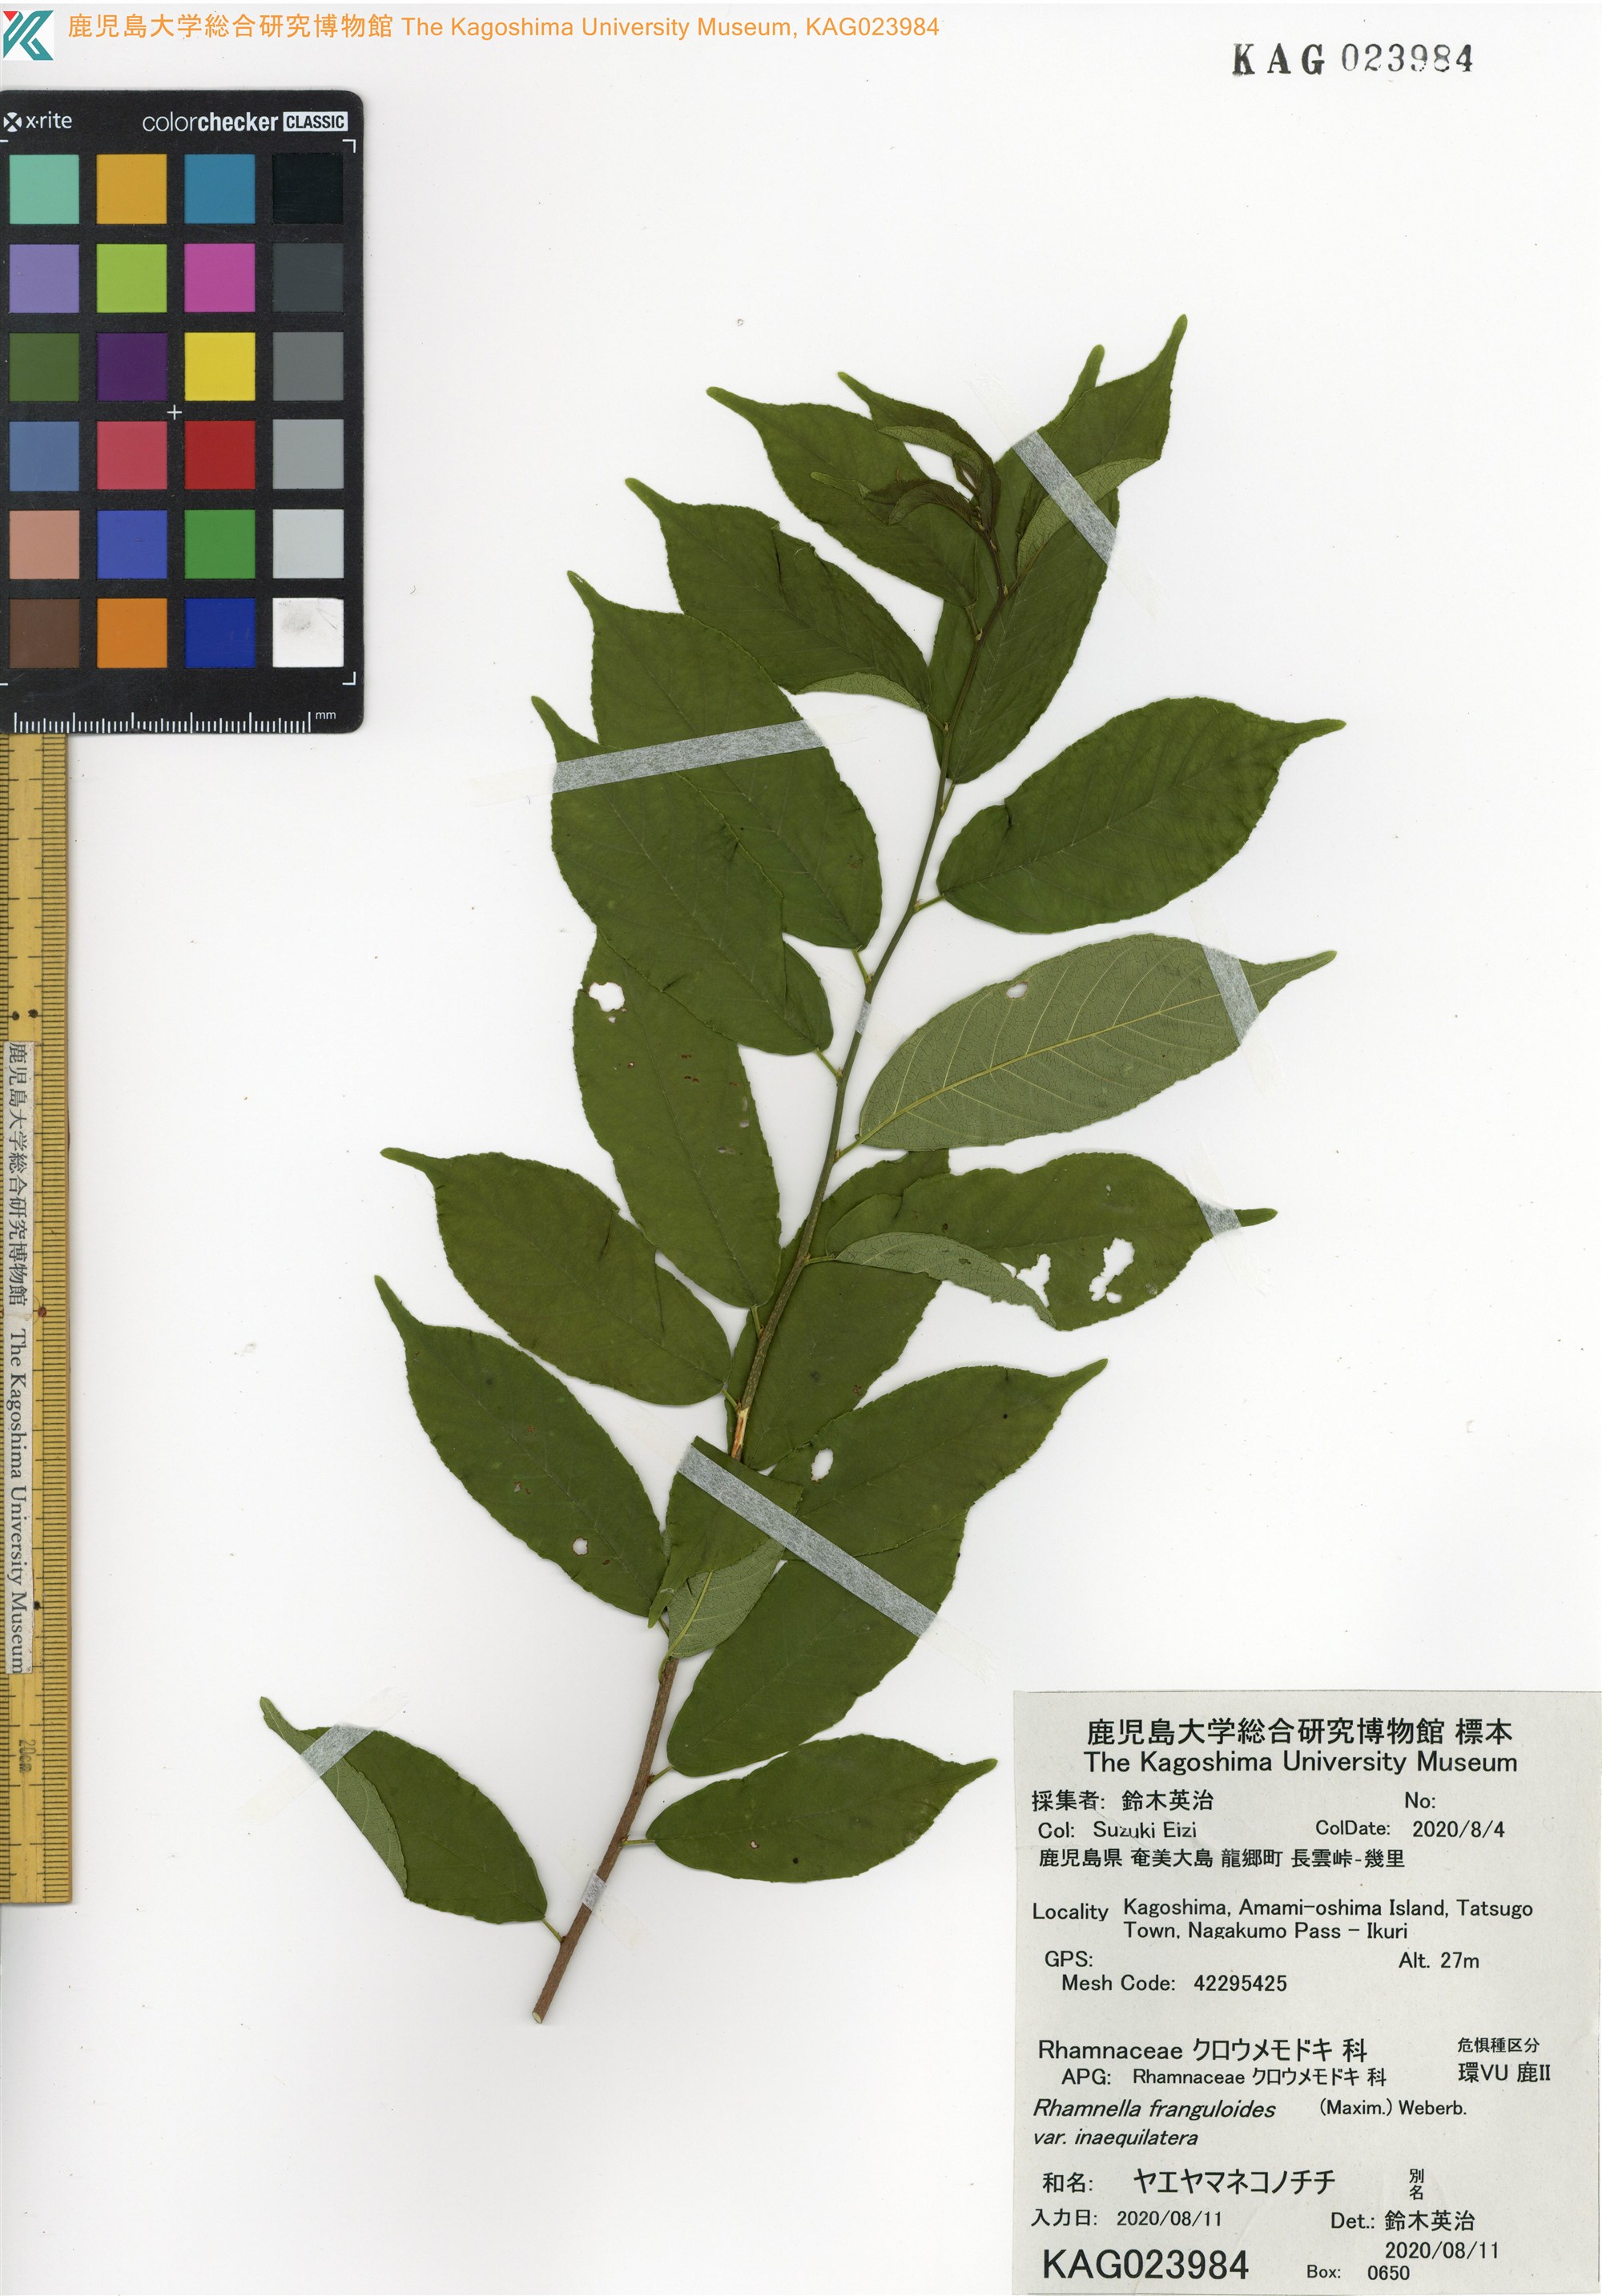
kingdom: Plantae
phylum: Tracheophyta
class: Magnoliopsida
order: Rosales
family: Rhamnaceae
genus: Rhamnella
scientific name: Rhamnella franguloides
